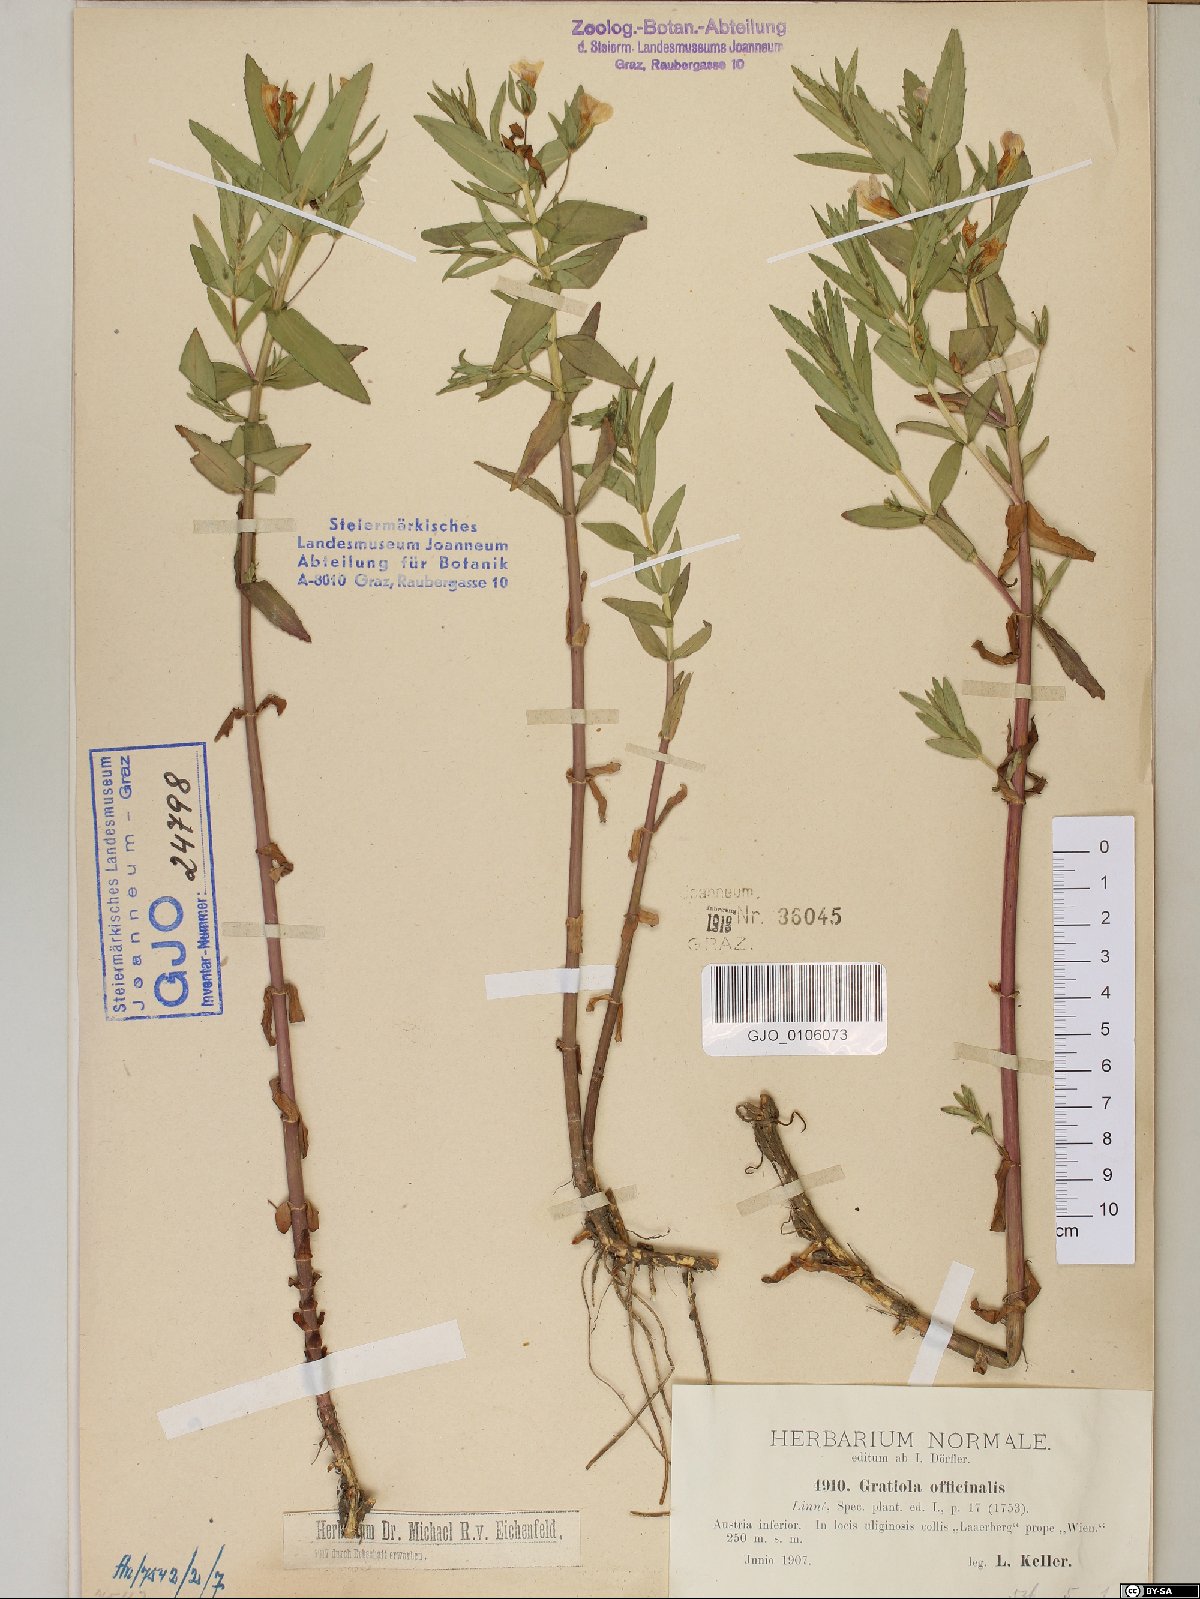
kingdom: Plantae
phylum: Tracheophyta
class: Magnoliopsida
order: Lamiales
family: Plantaginaceae
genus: Gratiola
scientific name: Gratiola officinalis
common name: Gratiola
